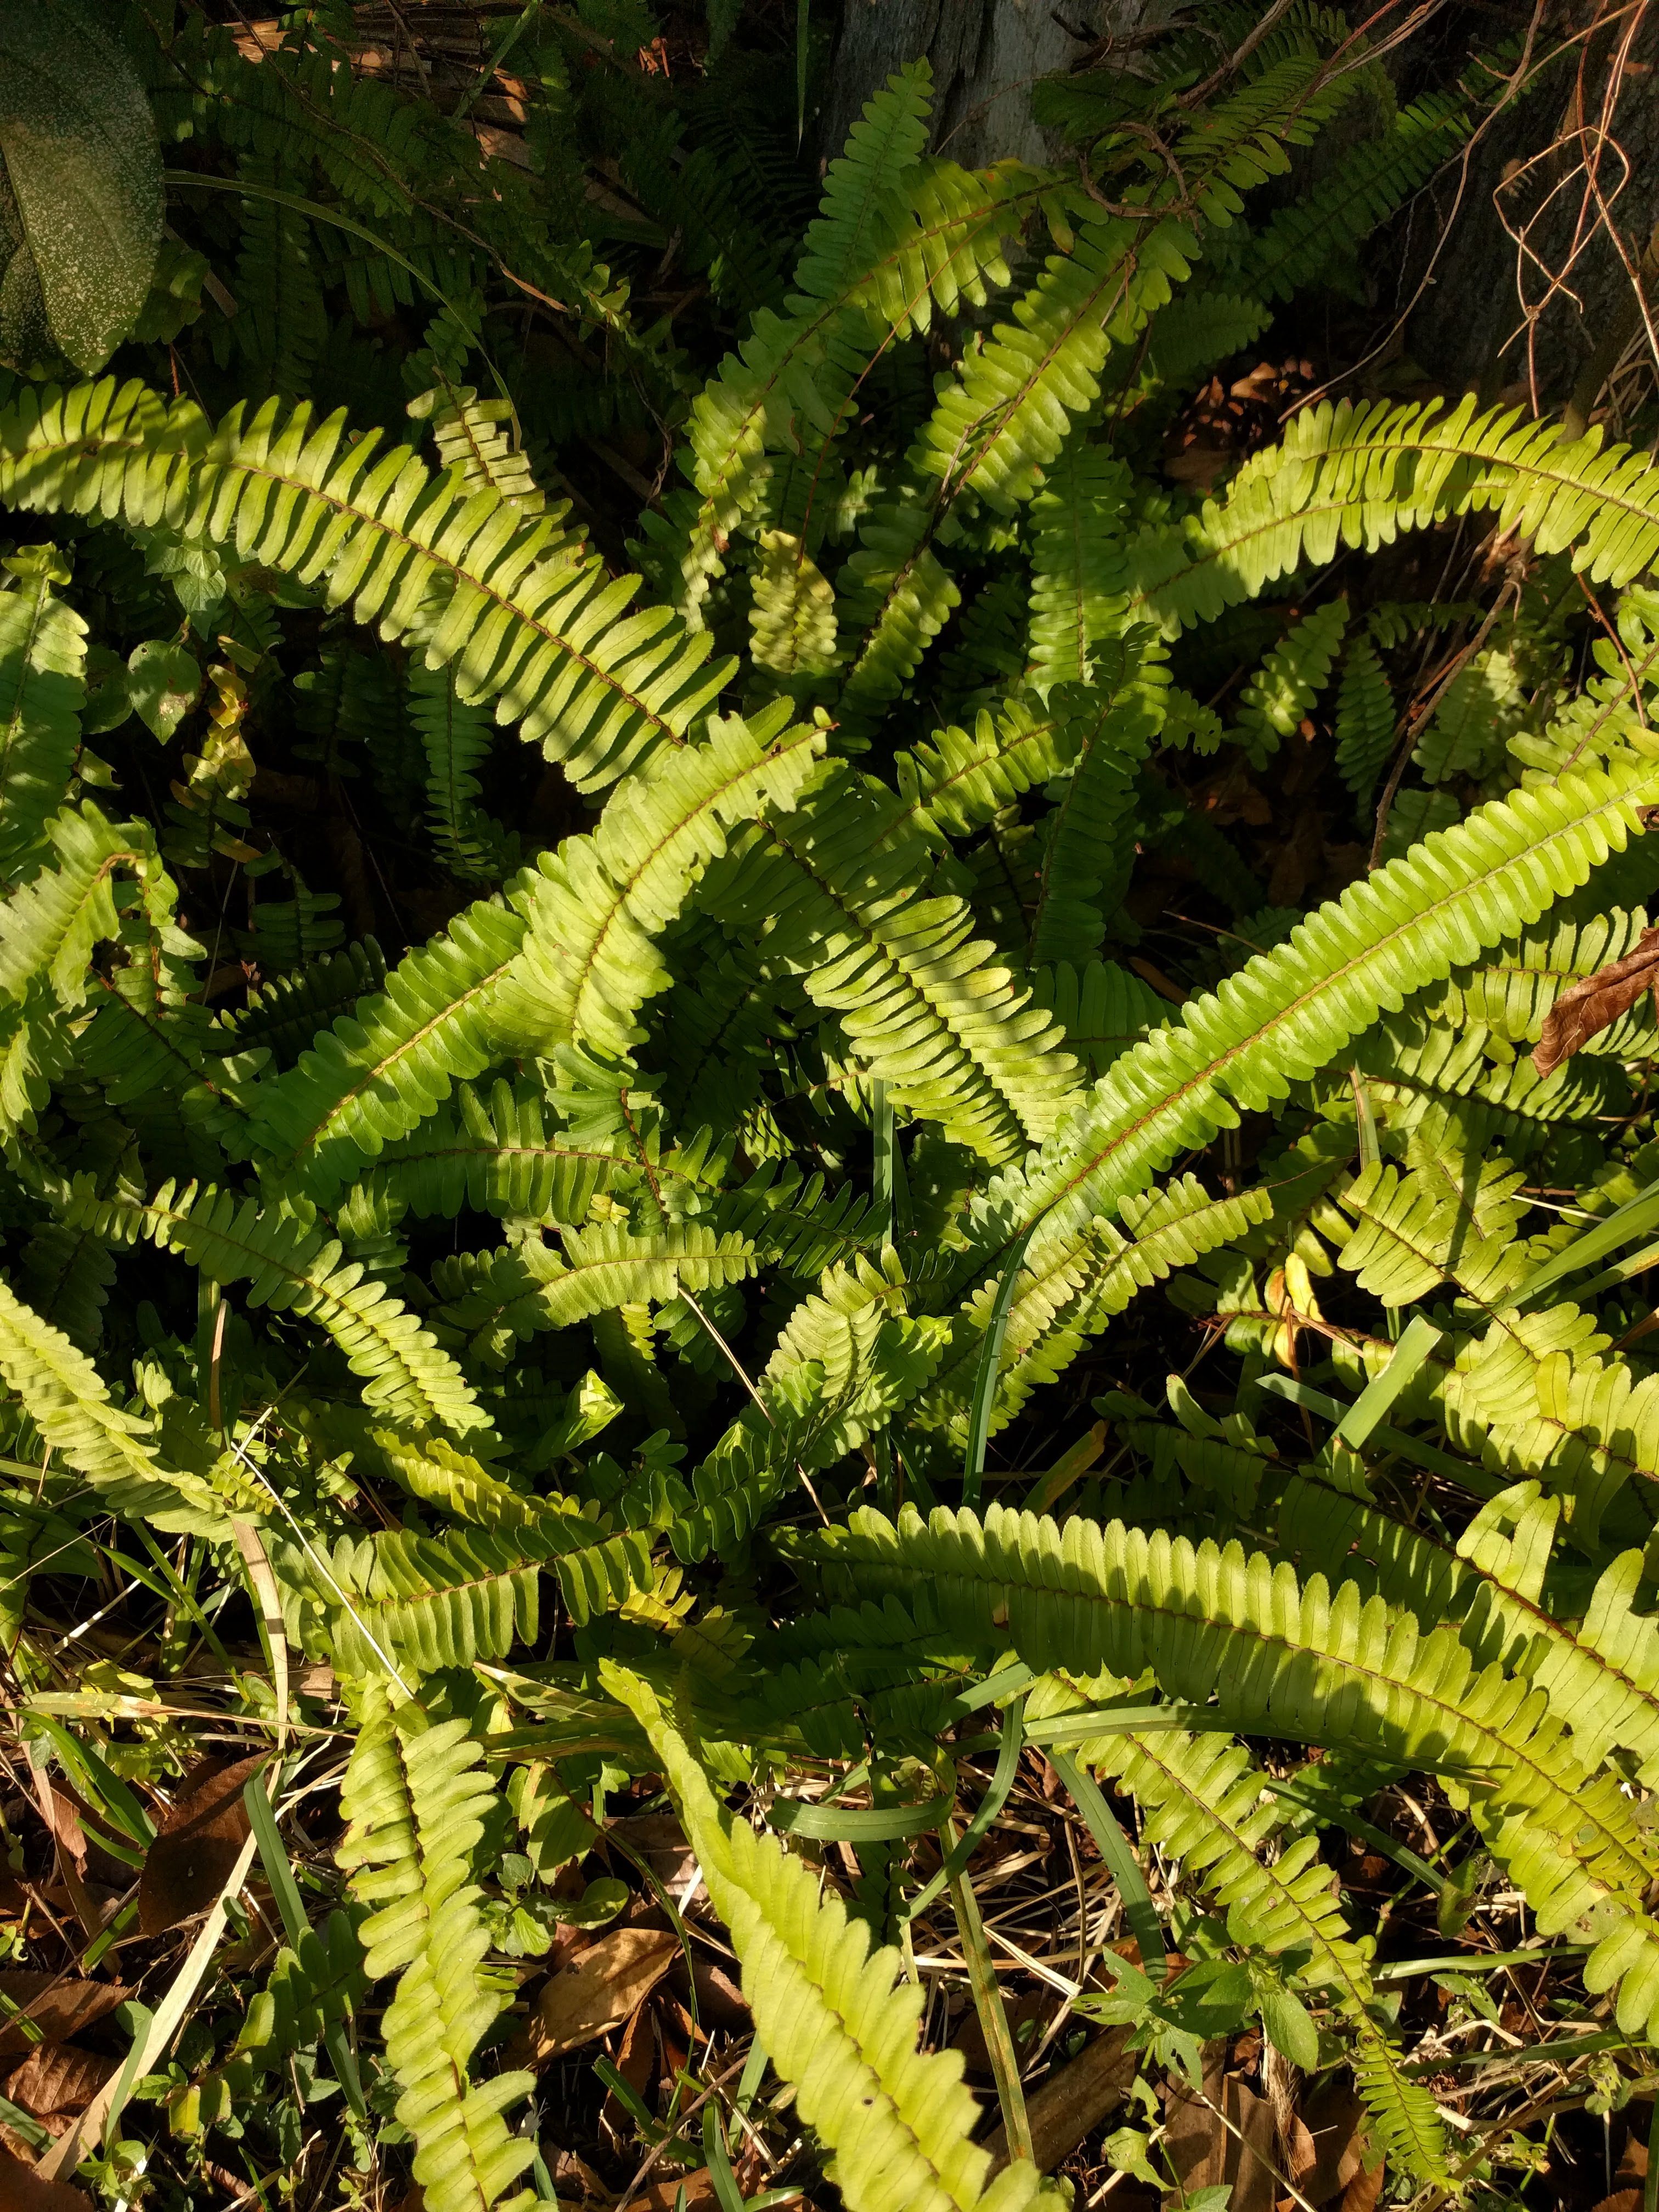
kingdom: Plantae
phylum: Tracheophyta
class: Polypodiopsida
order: Polypodiales
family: Nephrolepidaceae
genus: Nephrolepis
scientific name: Nephrolepis exaltata
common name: Sword fern
